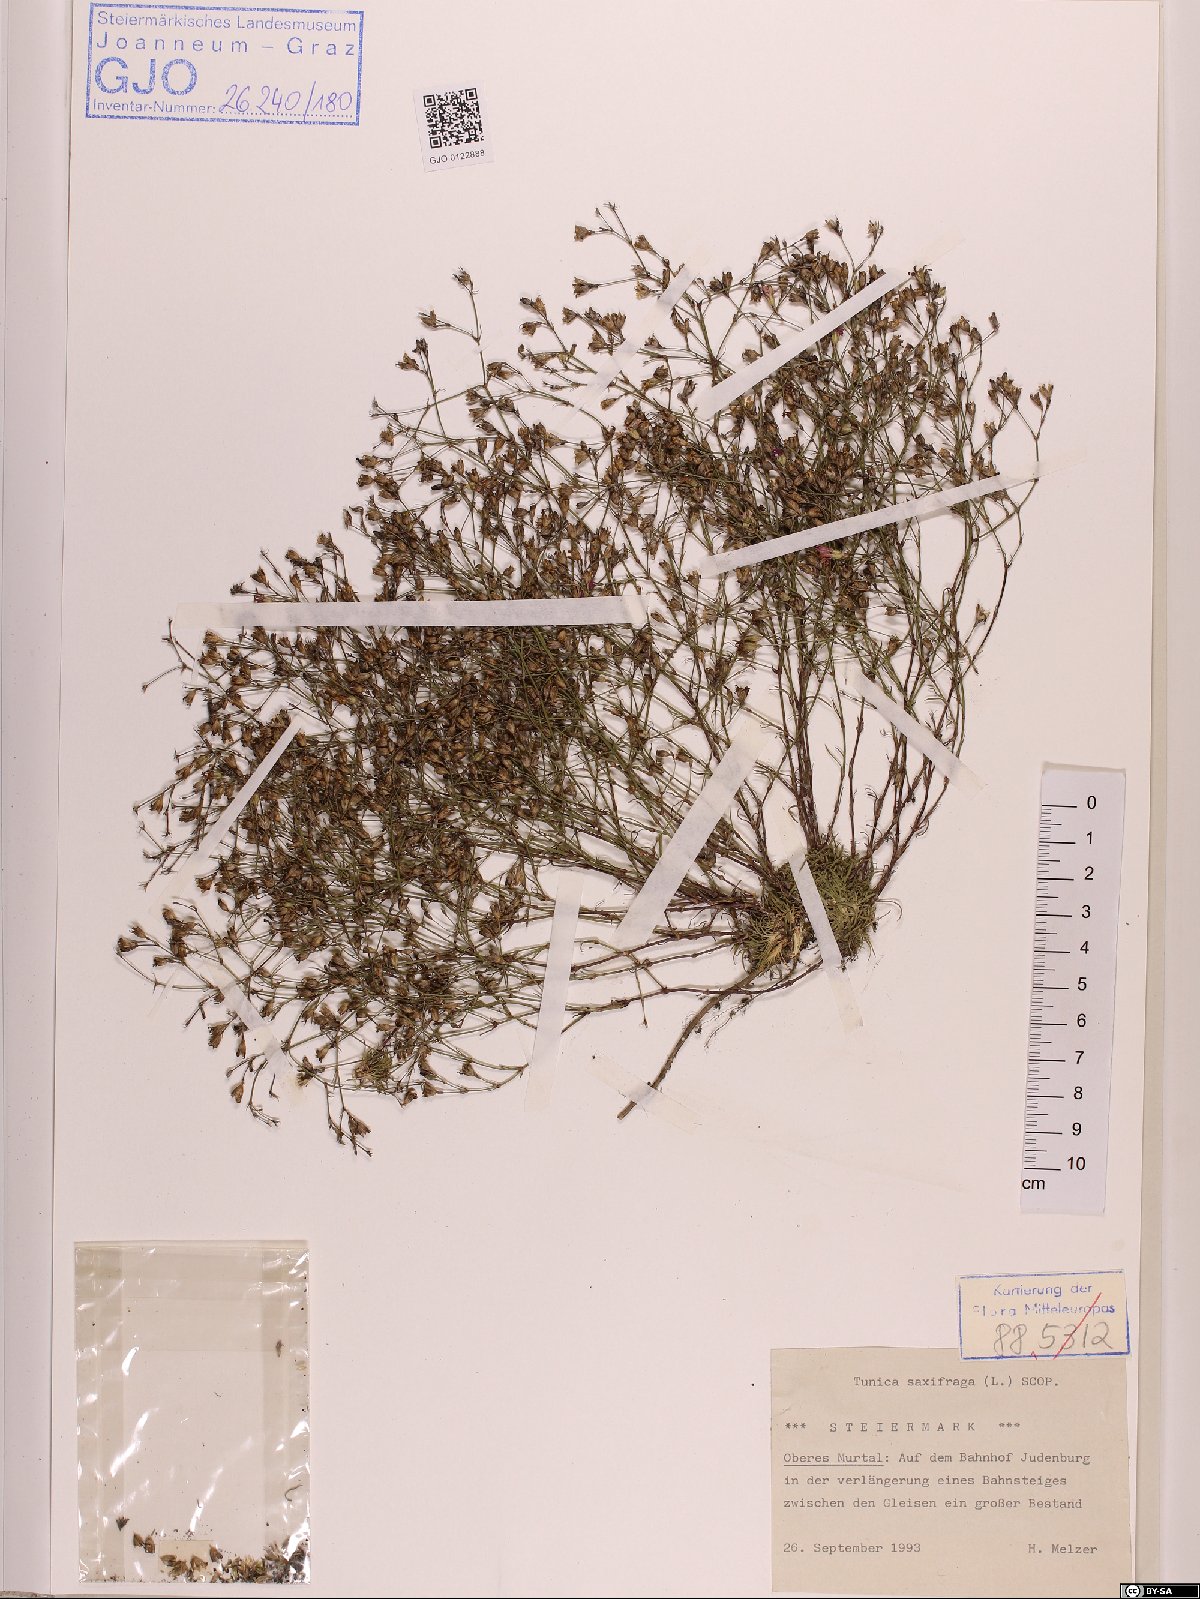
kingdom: Plantae
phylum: Tracheophyta
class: Magnoliopsida
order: Caryophyllales
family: Caryophyllaceae
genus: Petrorhagia
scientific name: Petrorhagia saxifraga
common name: Tunicflower
